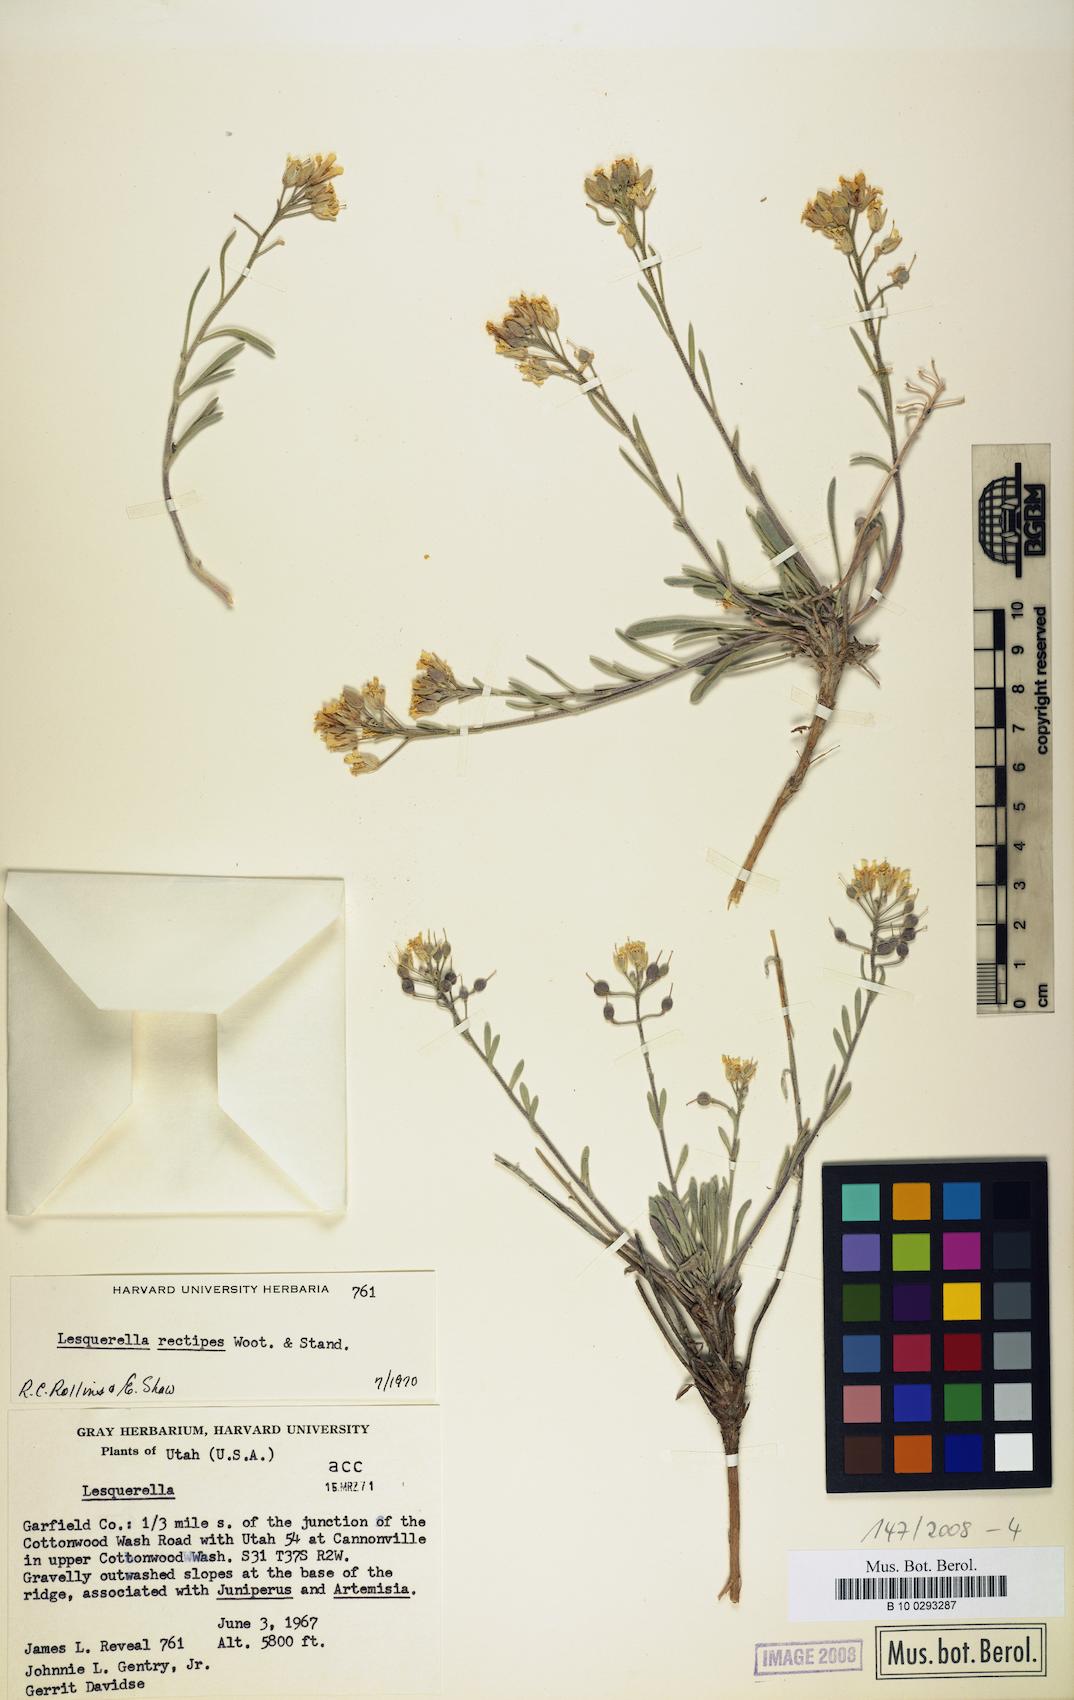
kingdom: Plantae
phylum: Tracheophyta
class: Magnoliopsida
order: Brassicales
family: Brassicaceae
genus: Physaria
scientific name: Physaria rectipes
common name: Colorado bladderpod
